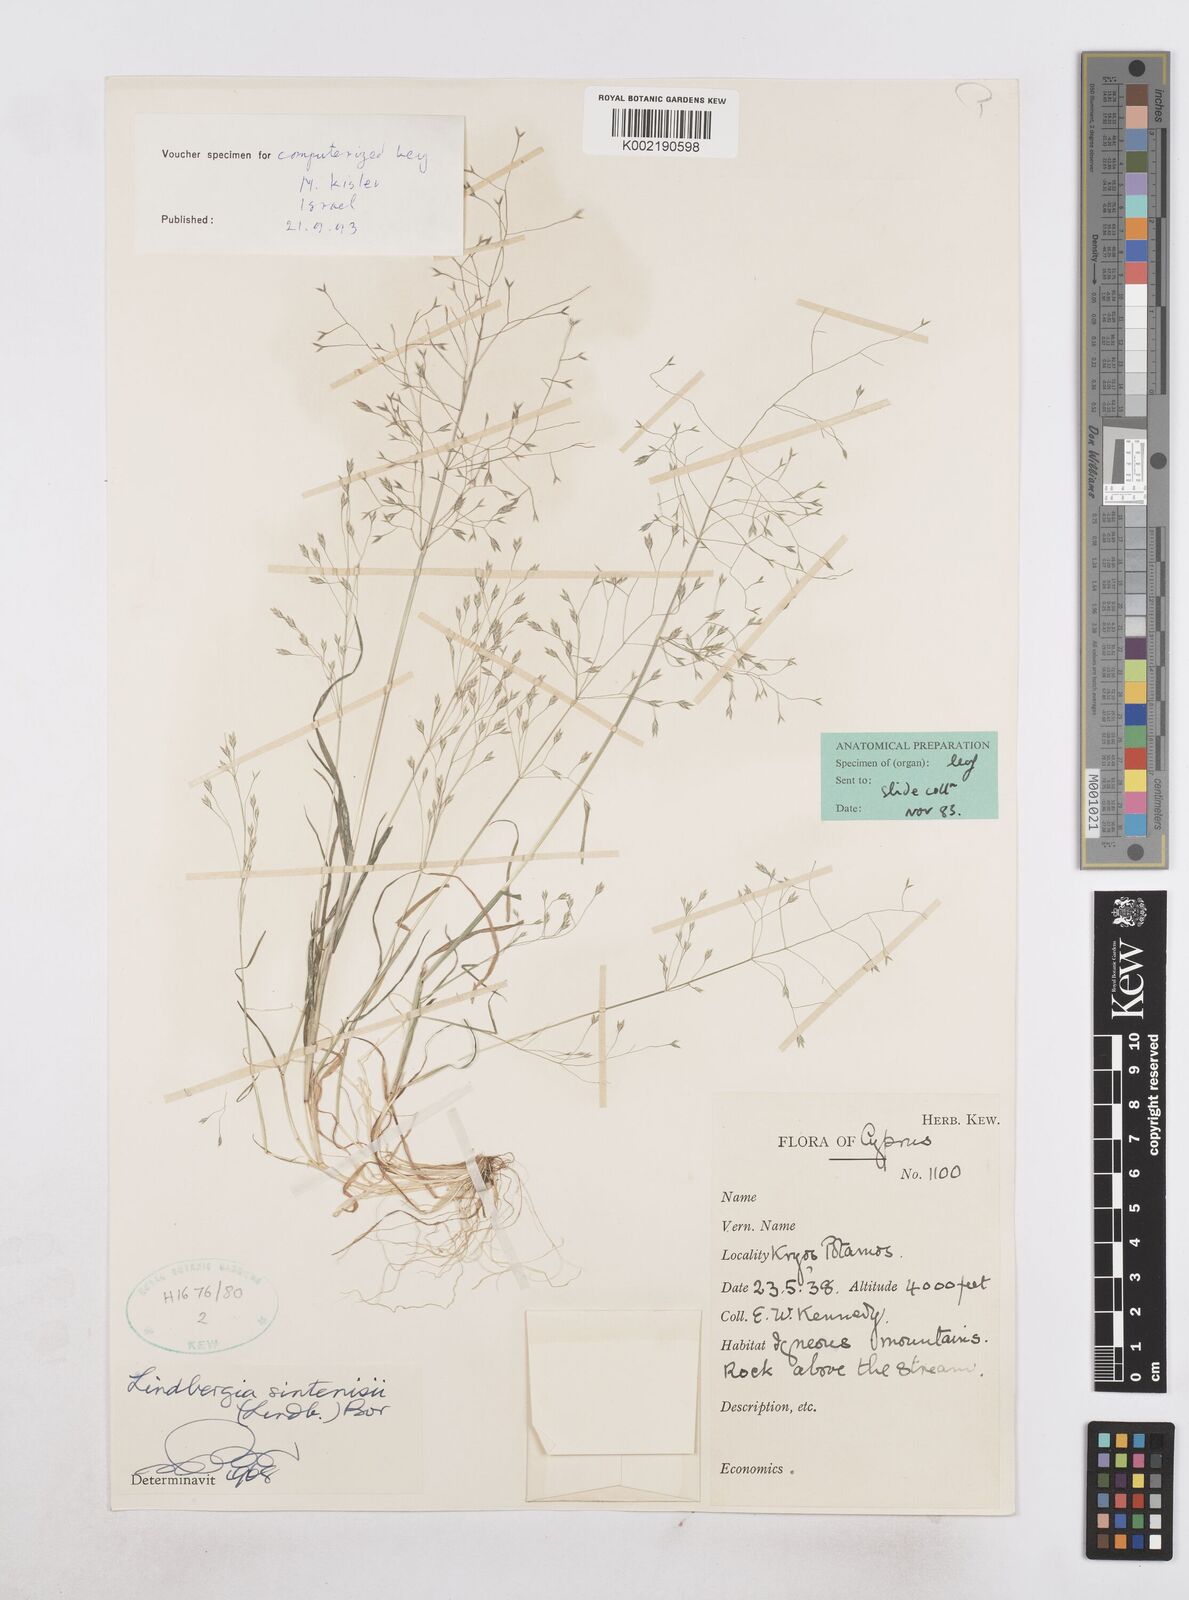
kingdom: Plantae
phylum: Tracheophyta
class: Liliopsida
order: Poales
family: Poaceae
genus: Poa
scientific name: Poa sintenisii
